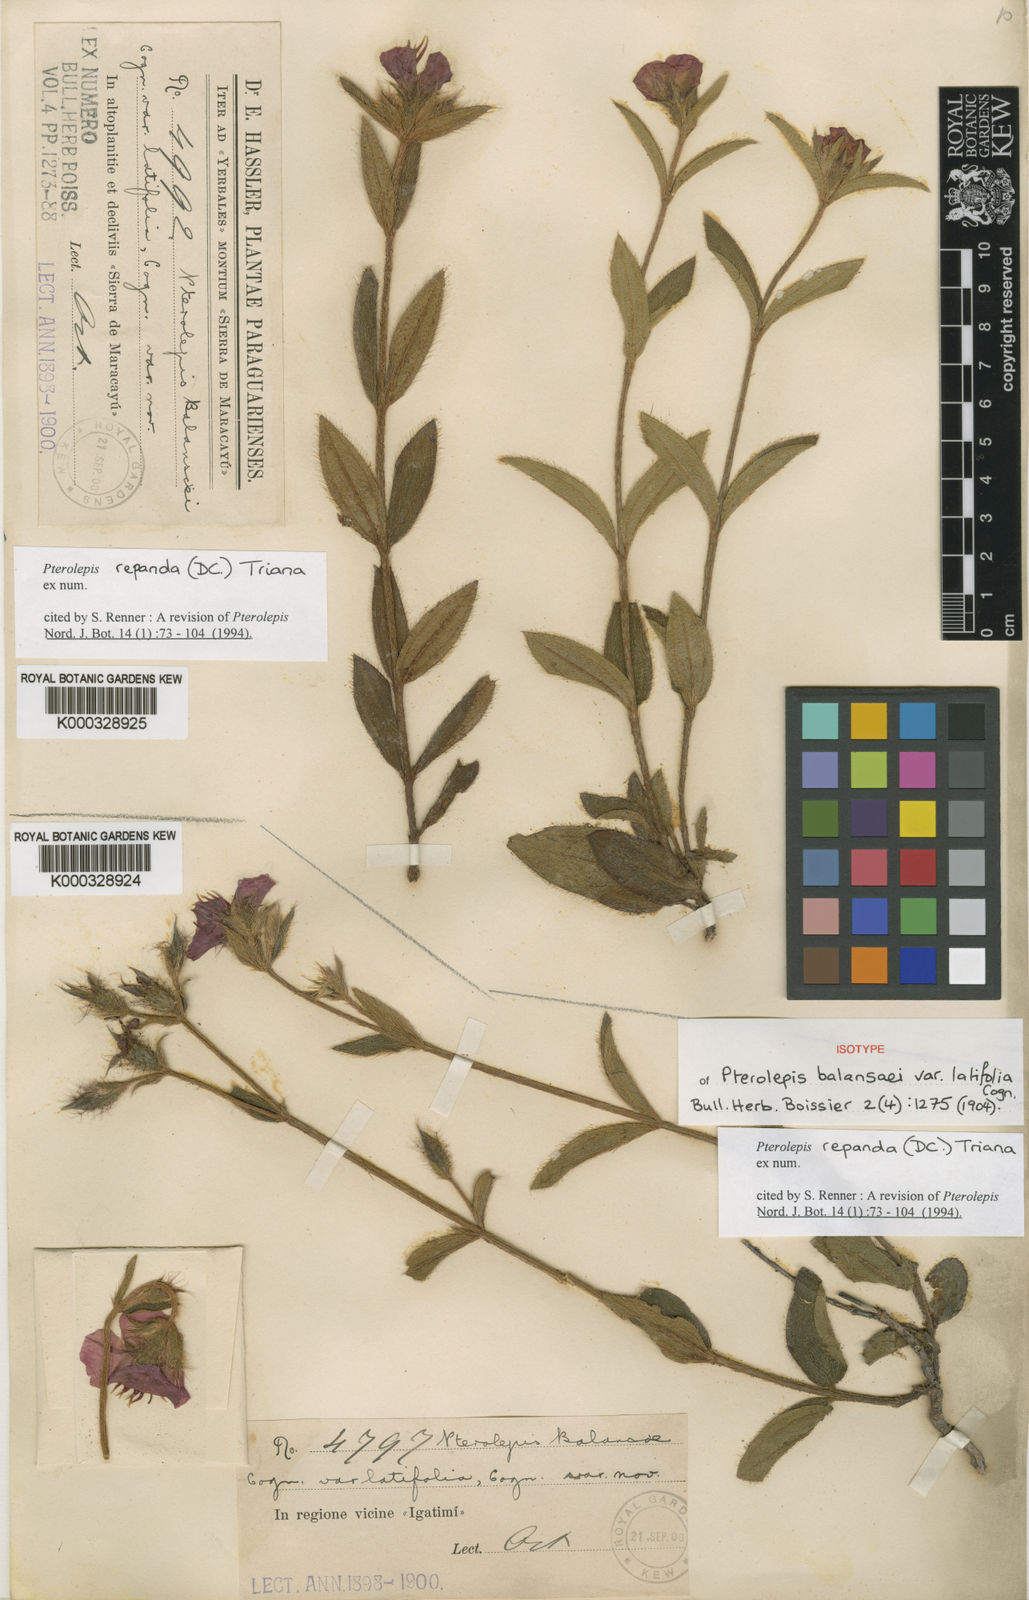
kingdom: Plantae
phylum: Tracheophyta
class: Magnoliopsida
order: Myrtales
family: Melastomataceae
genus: Pterolepis
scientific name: Pterolepis repanda
